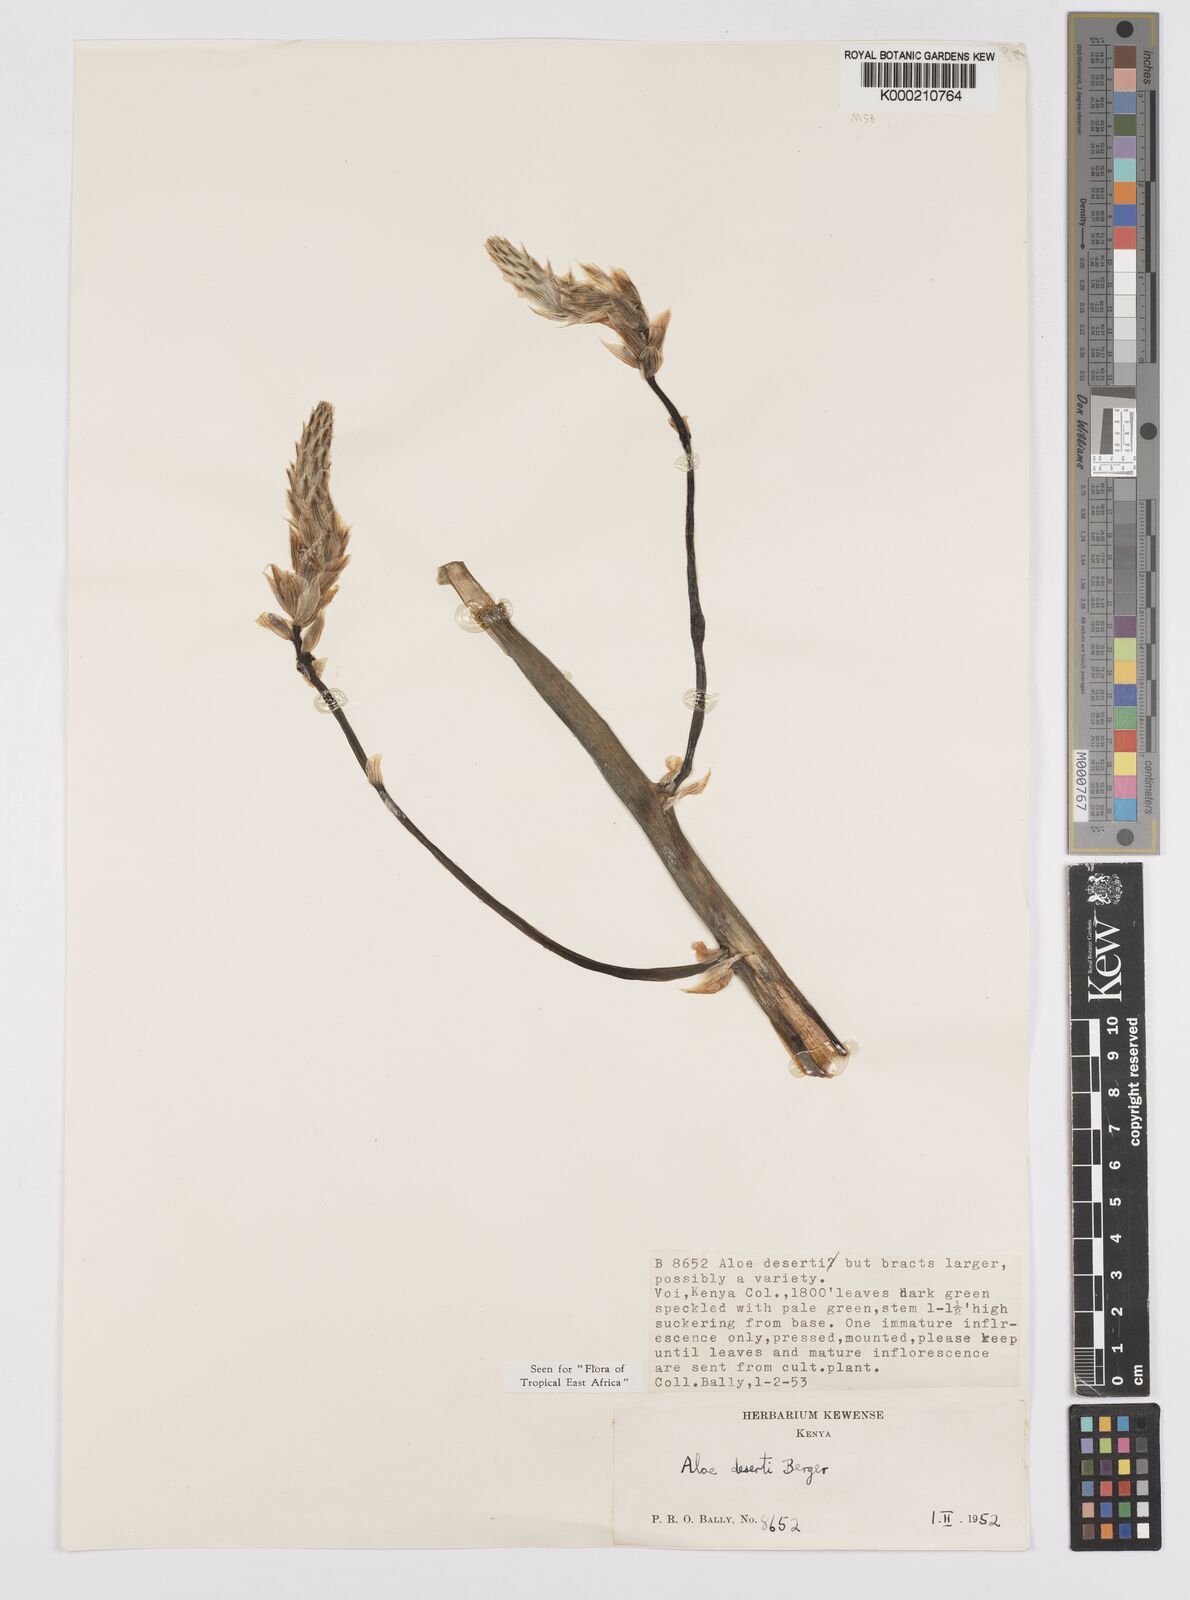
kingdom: Plantae
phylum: Tracheophyta
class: Liliopsida
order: Asparagales
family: Asphodelaceae
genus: Aloe
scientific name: Aloe deserti
